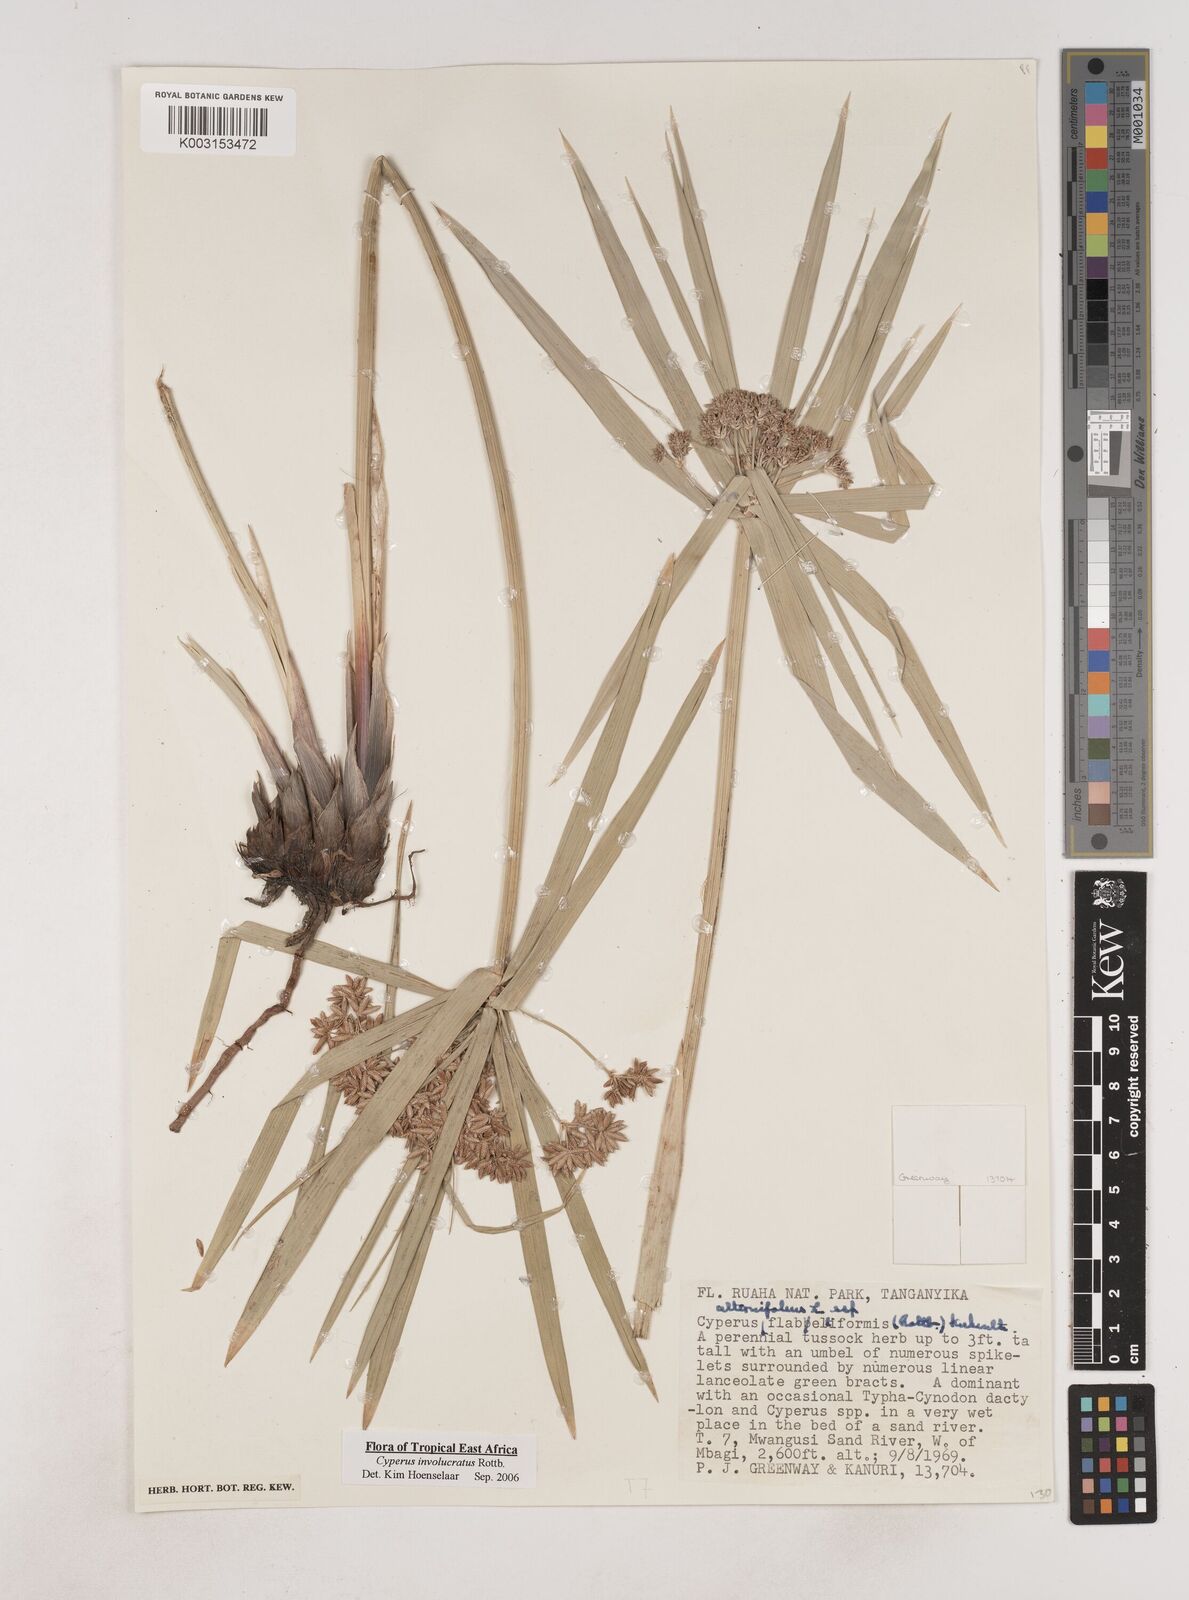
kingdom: Plantae
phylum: Tracheophyta
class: Liliopsida
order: Poales
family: Cyperaceae
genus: Cyperus
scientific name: Cyperus alternifolius
